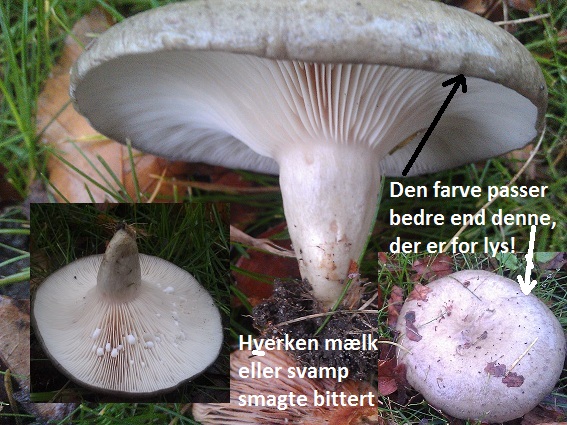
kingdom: Fungi
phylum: Basidiomycota
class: Agaricomycetes
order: Russulales
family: Russulaceae
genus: Lactarius
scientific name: Lactarius blennius
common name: dråbeplettet mælkehat
